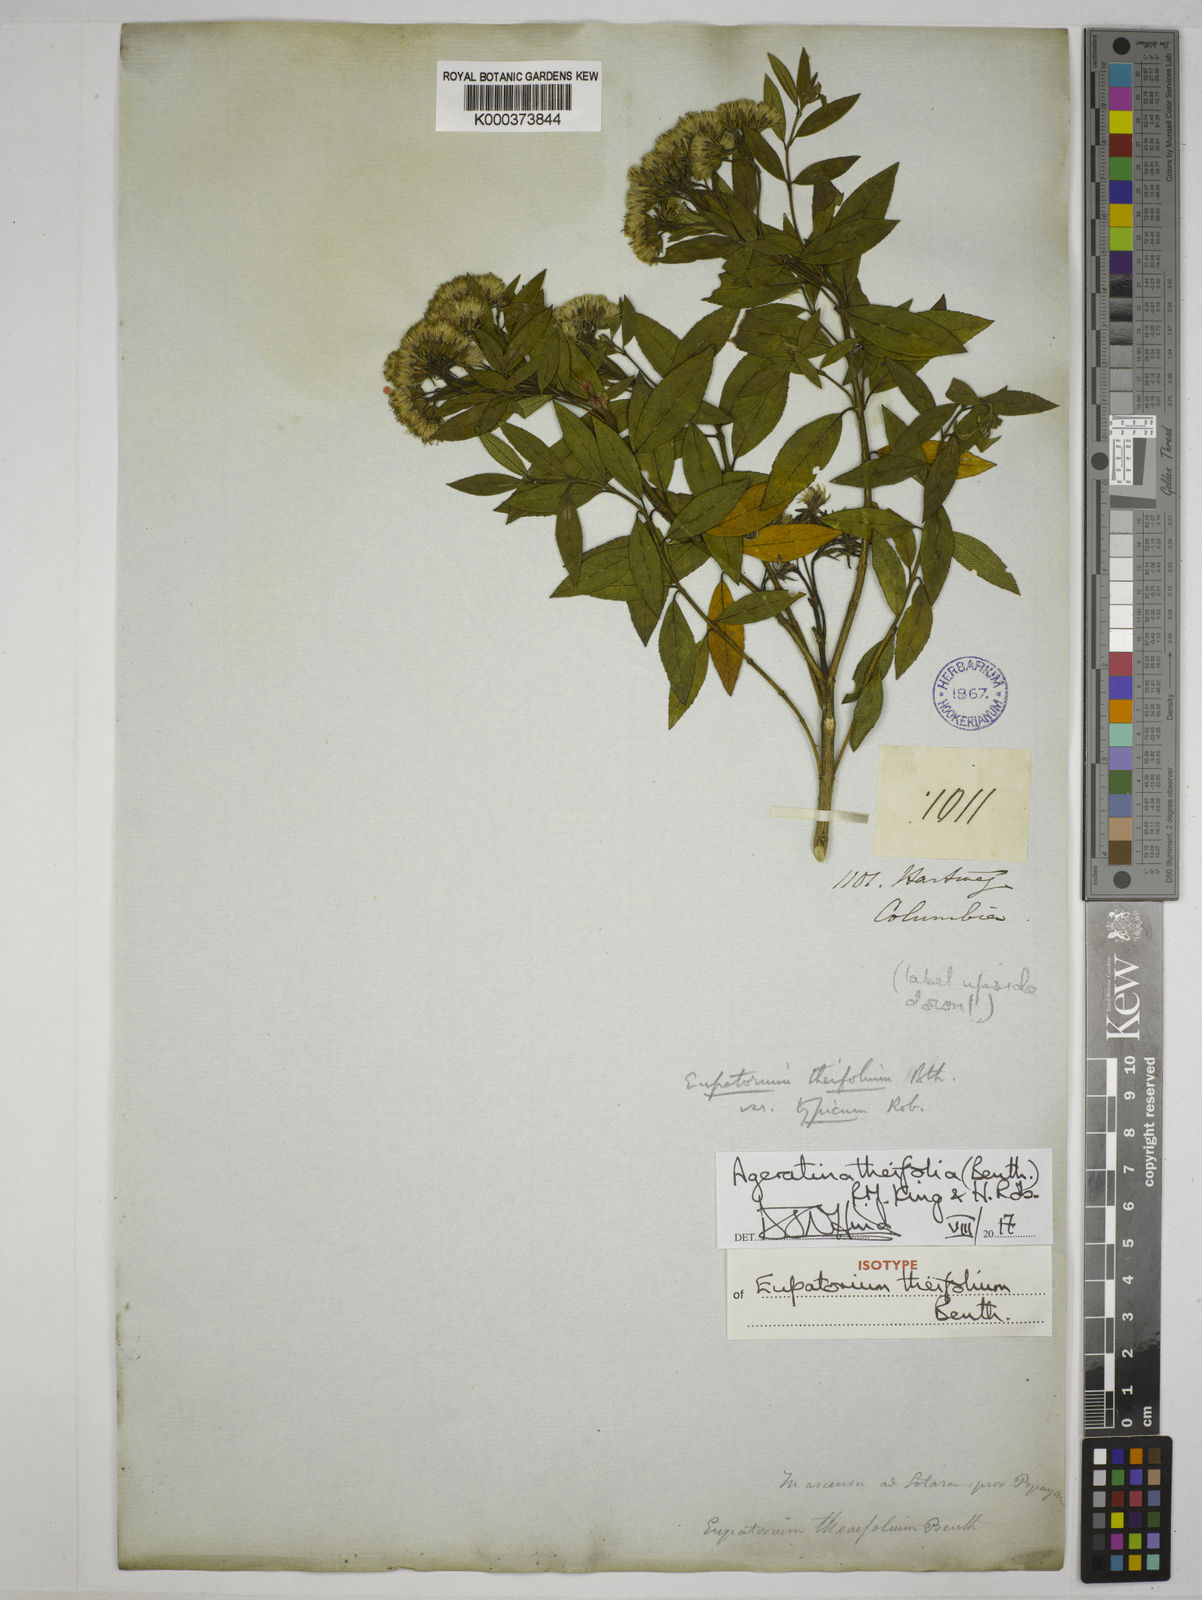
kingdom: Plantae
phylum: Tracheophyta
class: Magnoliopsida
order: Asterales
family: Asteraceae
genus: Ageratina
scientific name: Ageratina theifolia
